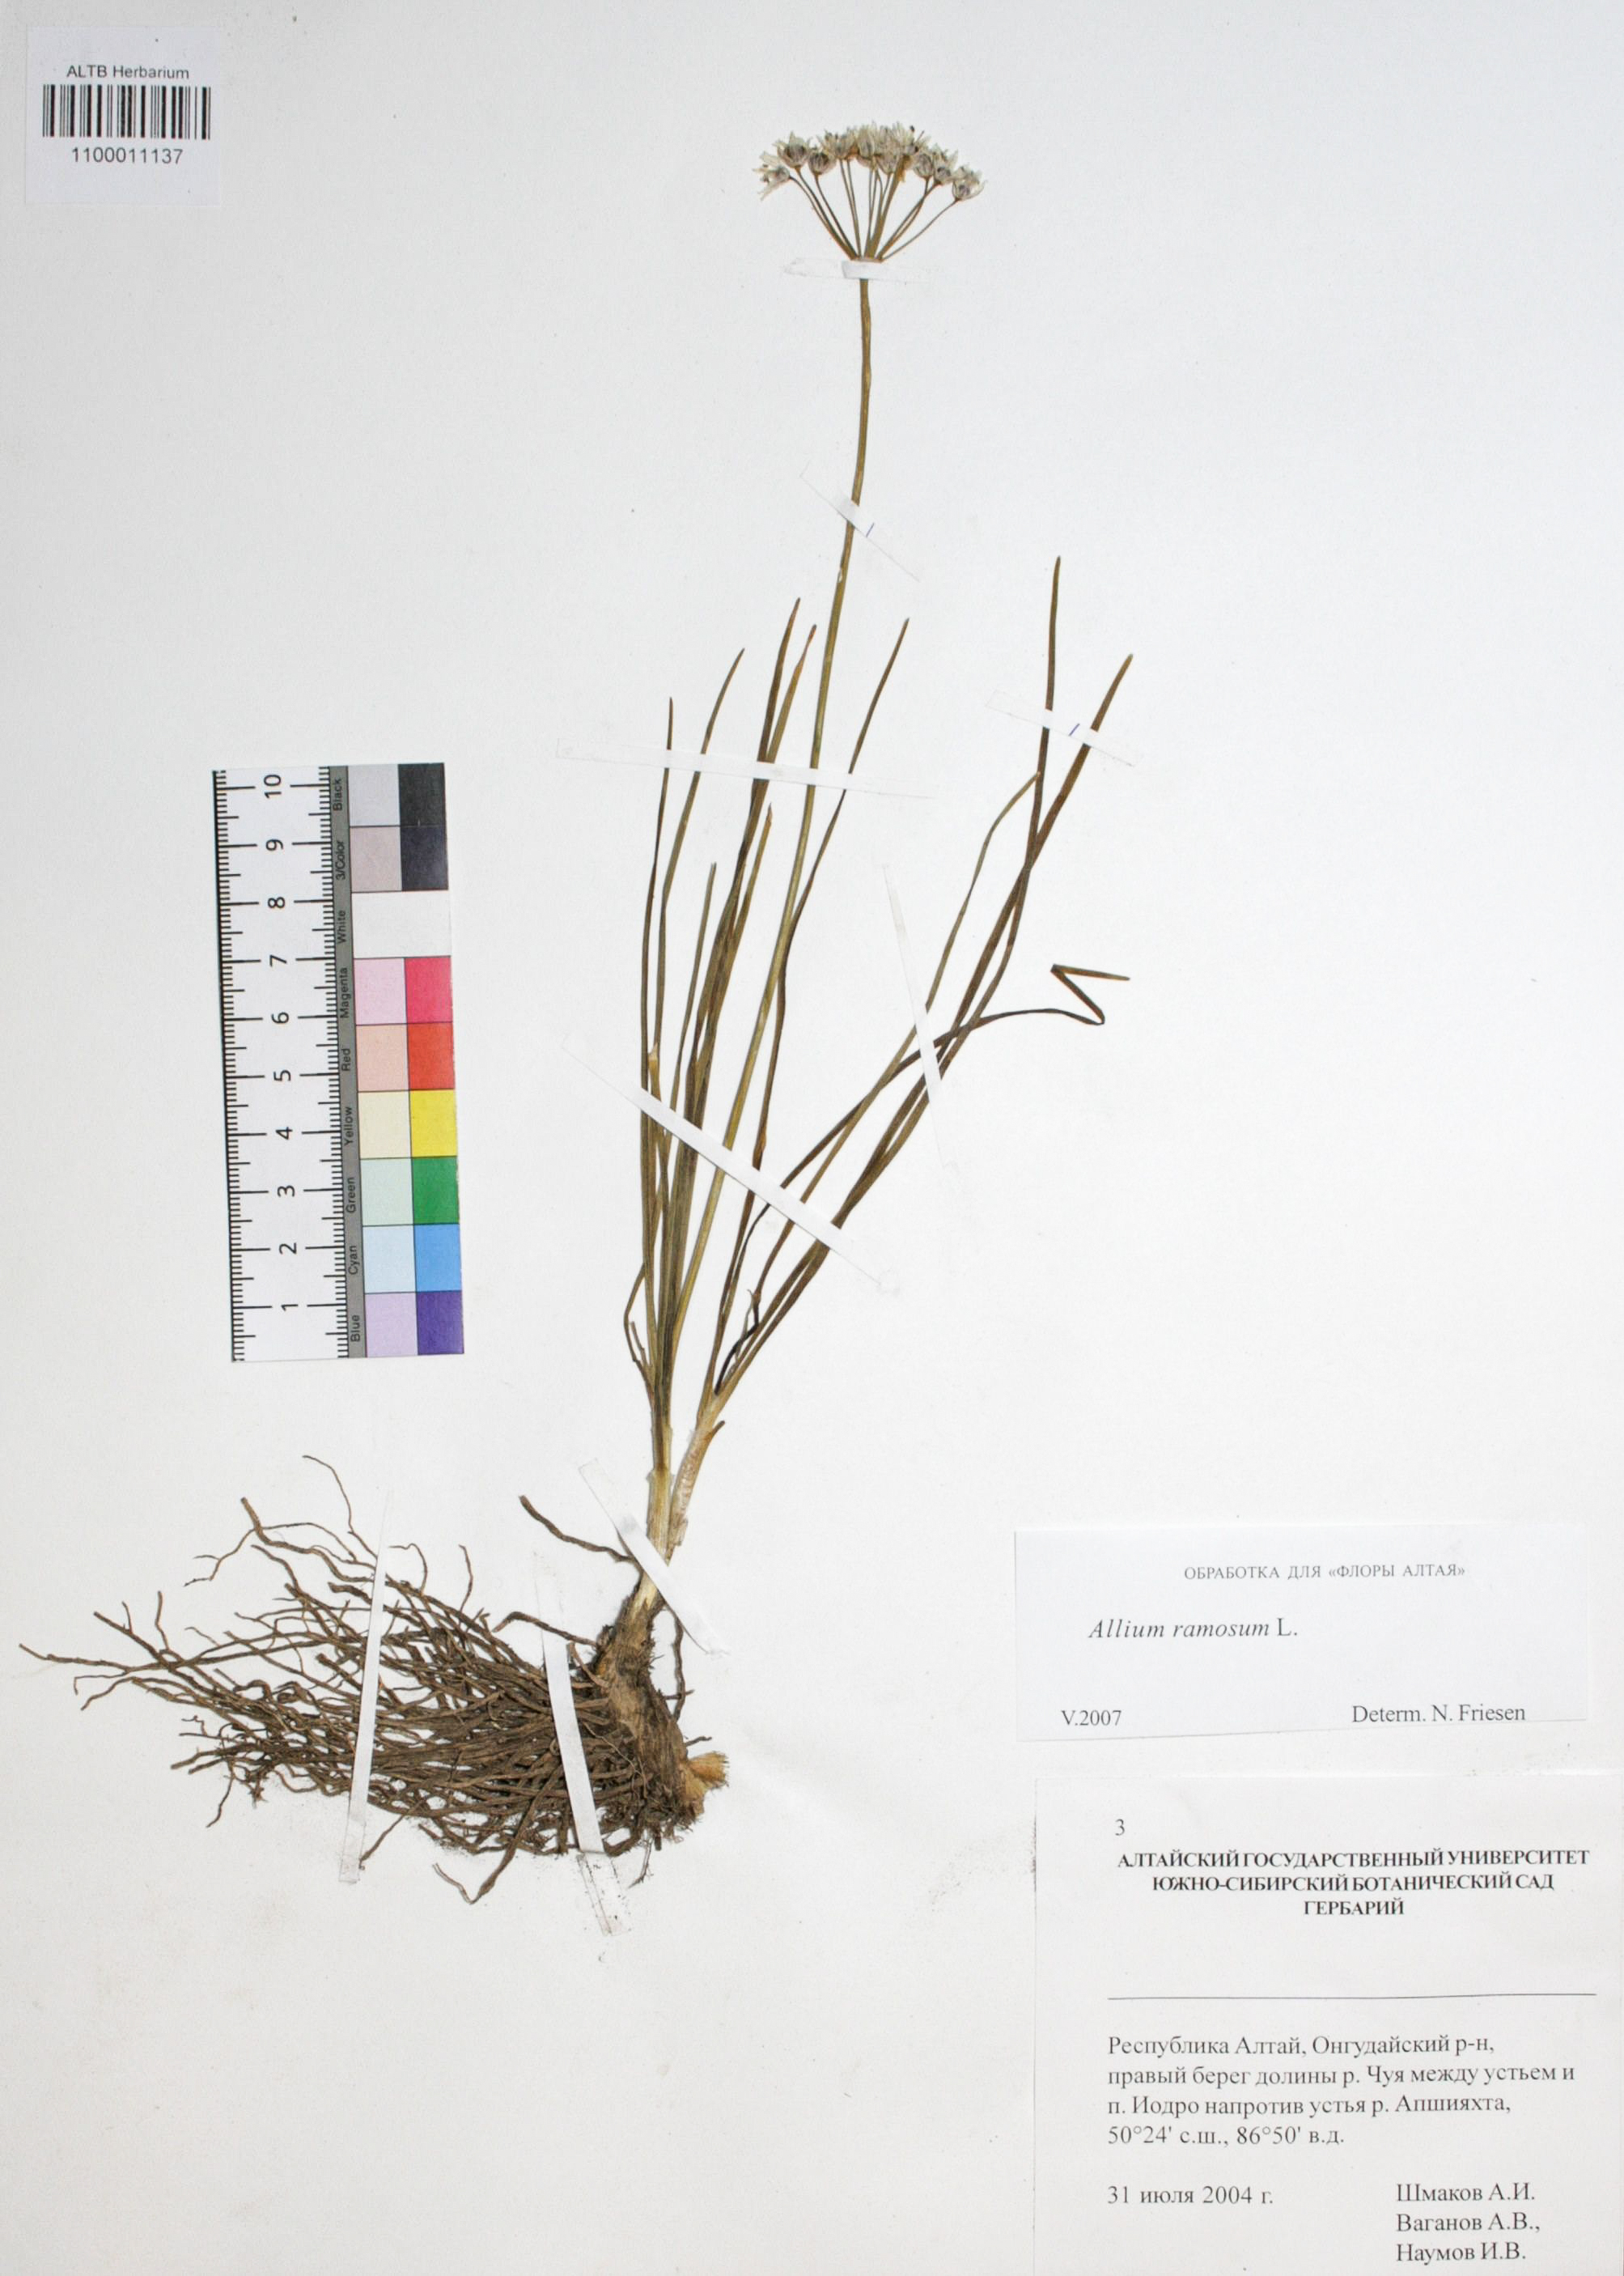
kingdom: Plantae
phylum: Tracheophyta
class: Liliopsida
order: Asparagales
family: Amaryllidaceae
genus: Allium
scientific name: Allium ramosum
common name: Fragrant garlic
